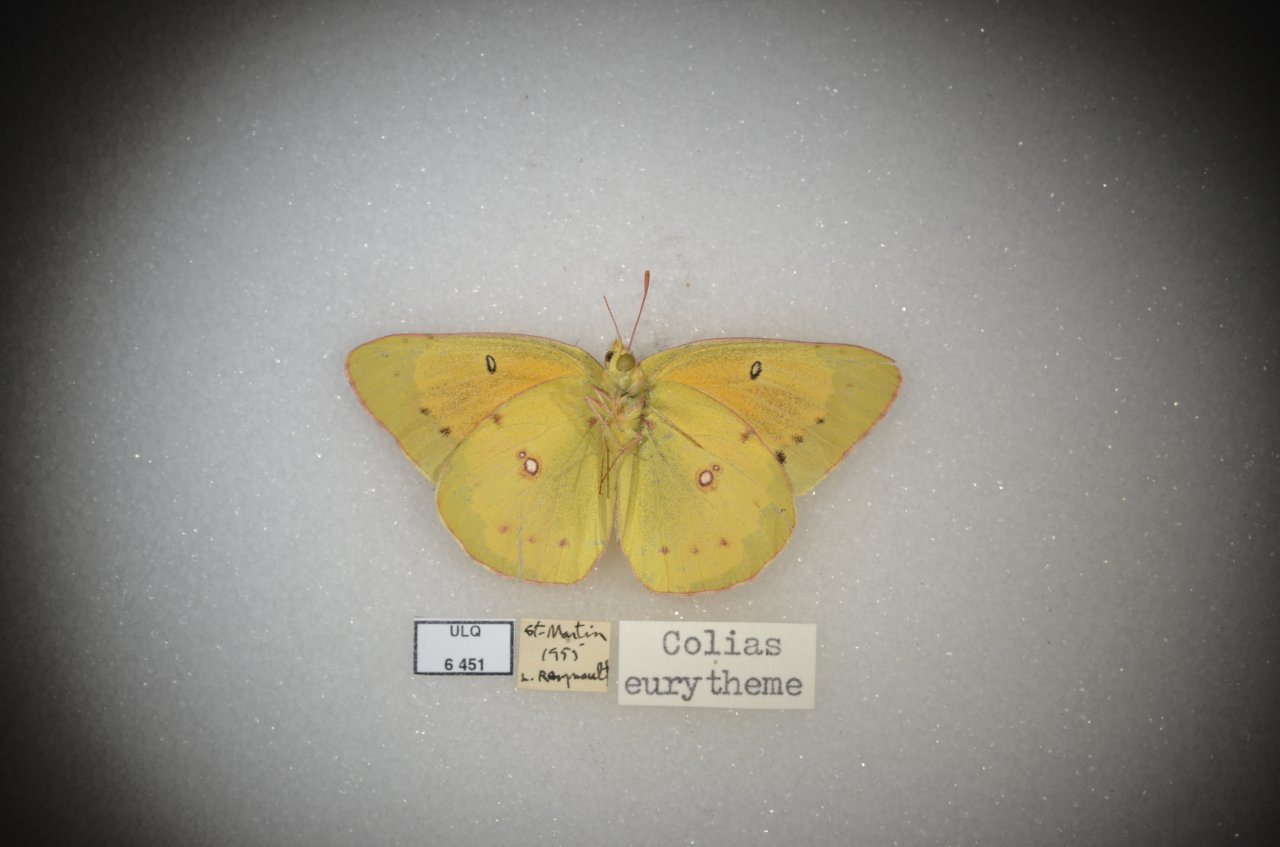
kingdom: Animalia
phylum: Arthropoda
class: Insecta
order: Lepidoptera
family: Pieridae
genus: Colias
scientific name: Colias eurytheme
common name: Orange Sulphur
